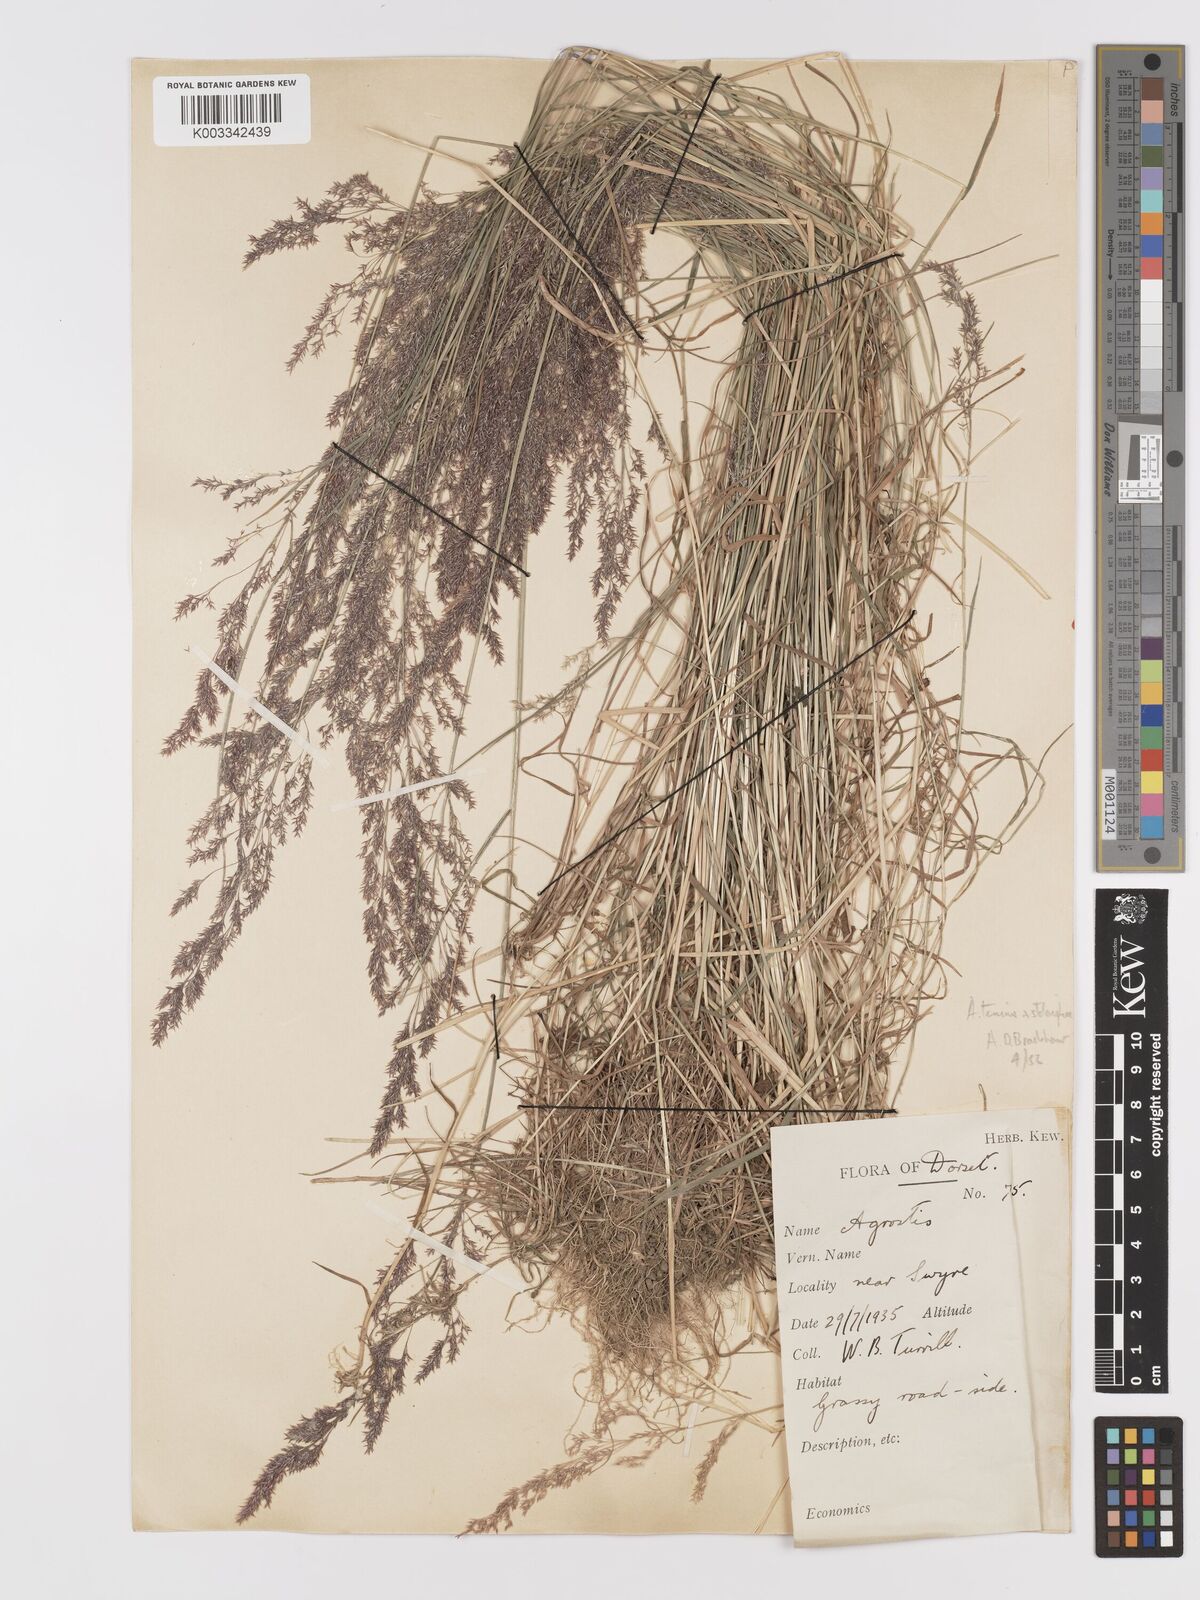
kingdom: Plantae
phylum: Tracheophyta
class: Liliopsida
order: Poales
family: Poaceae
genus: Agrostis
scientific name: Agrostis capillaris
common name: Colonial bentgrass
